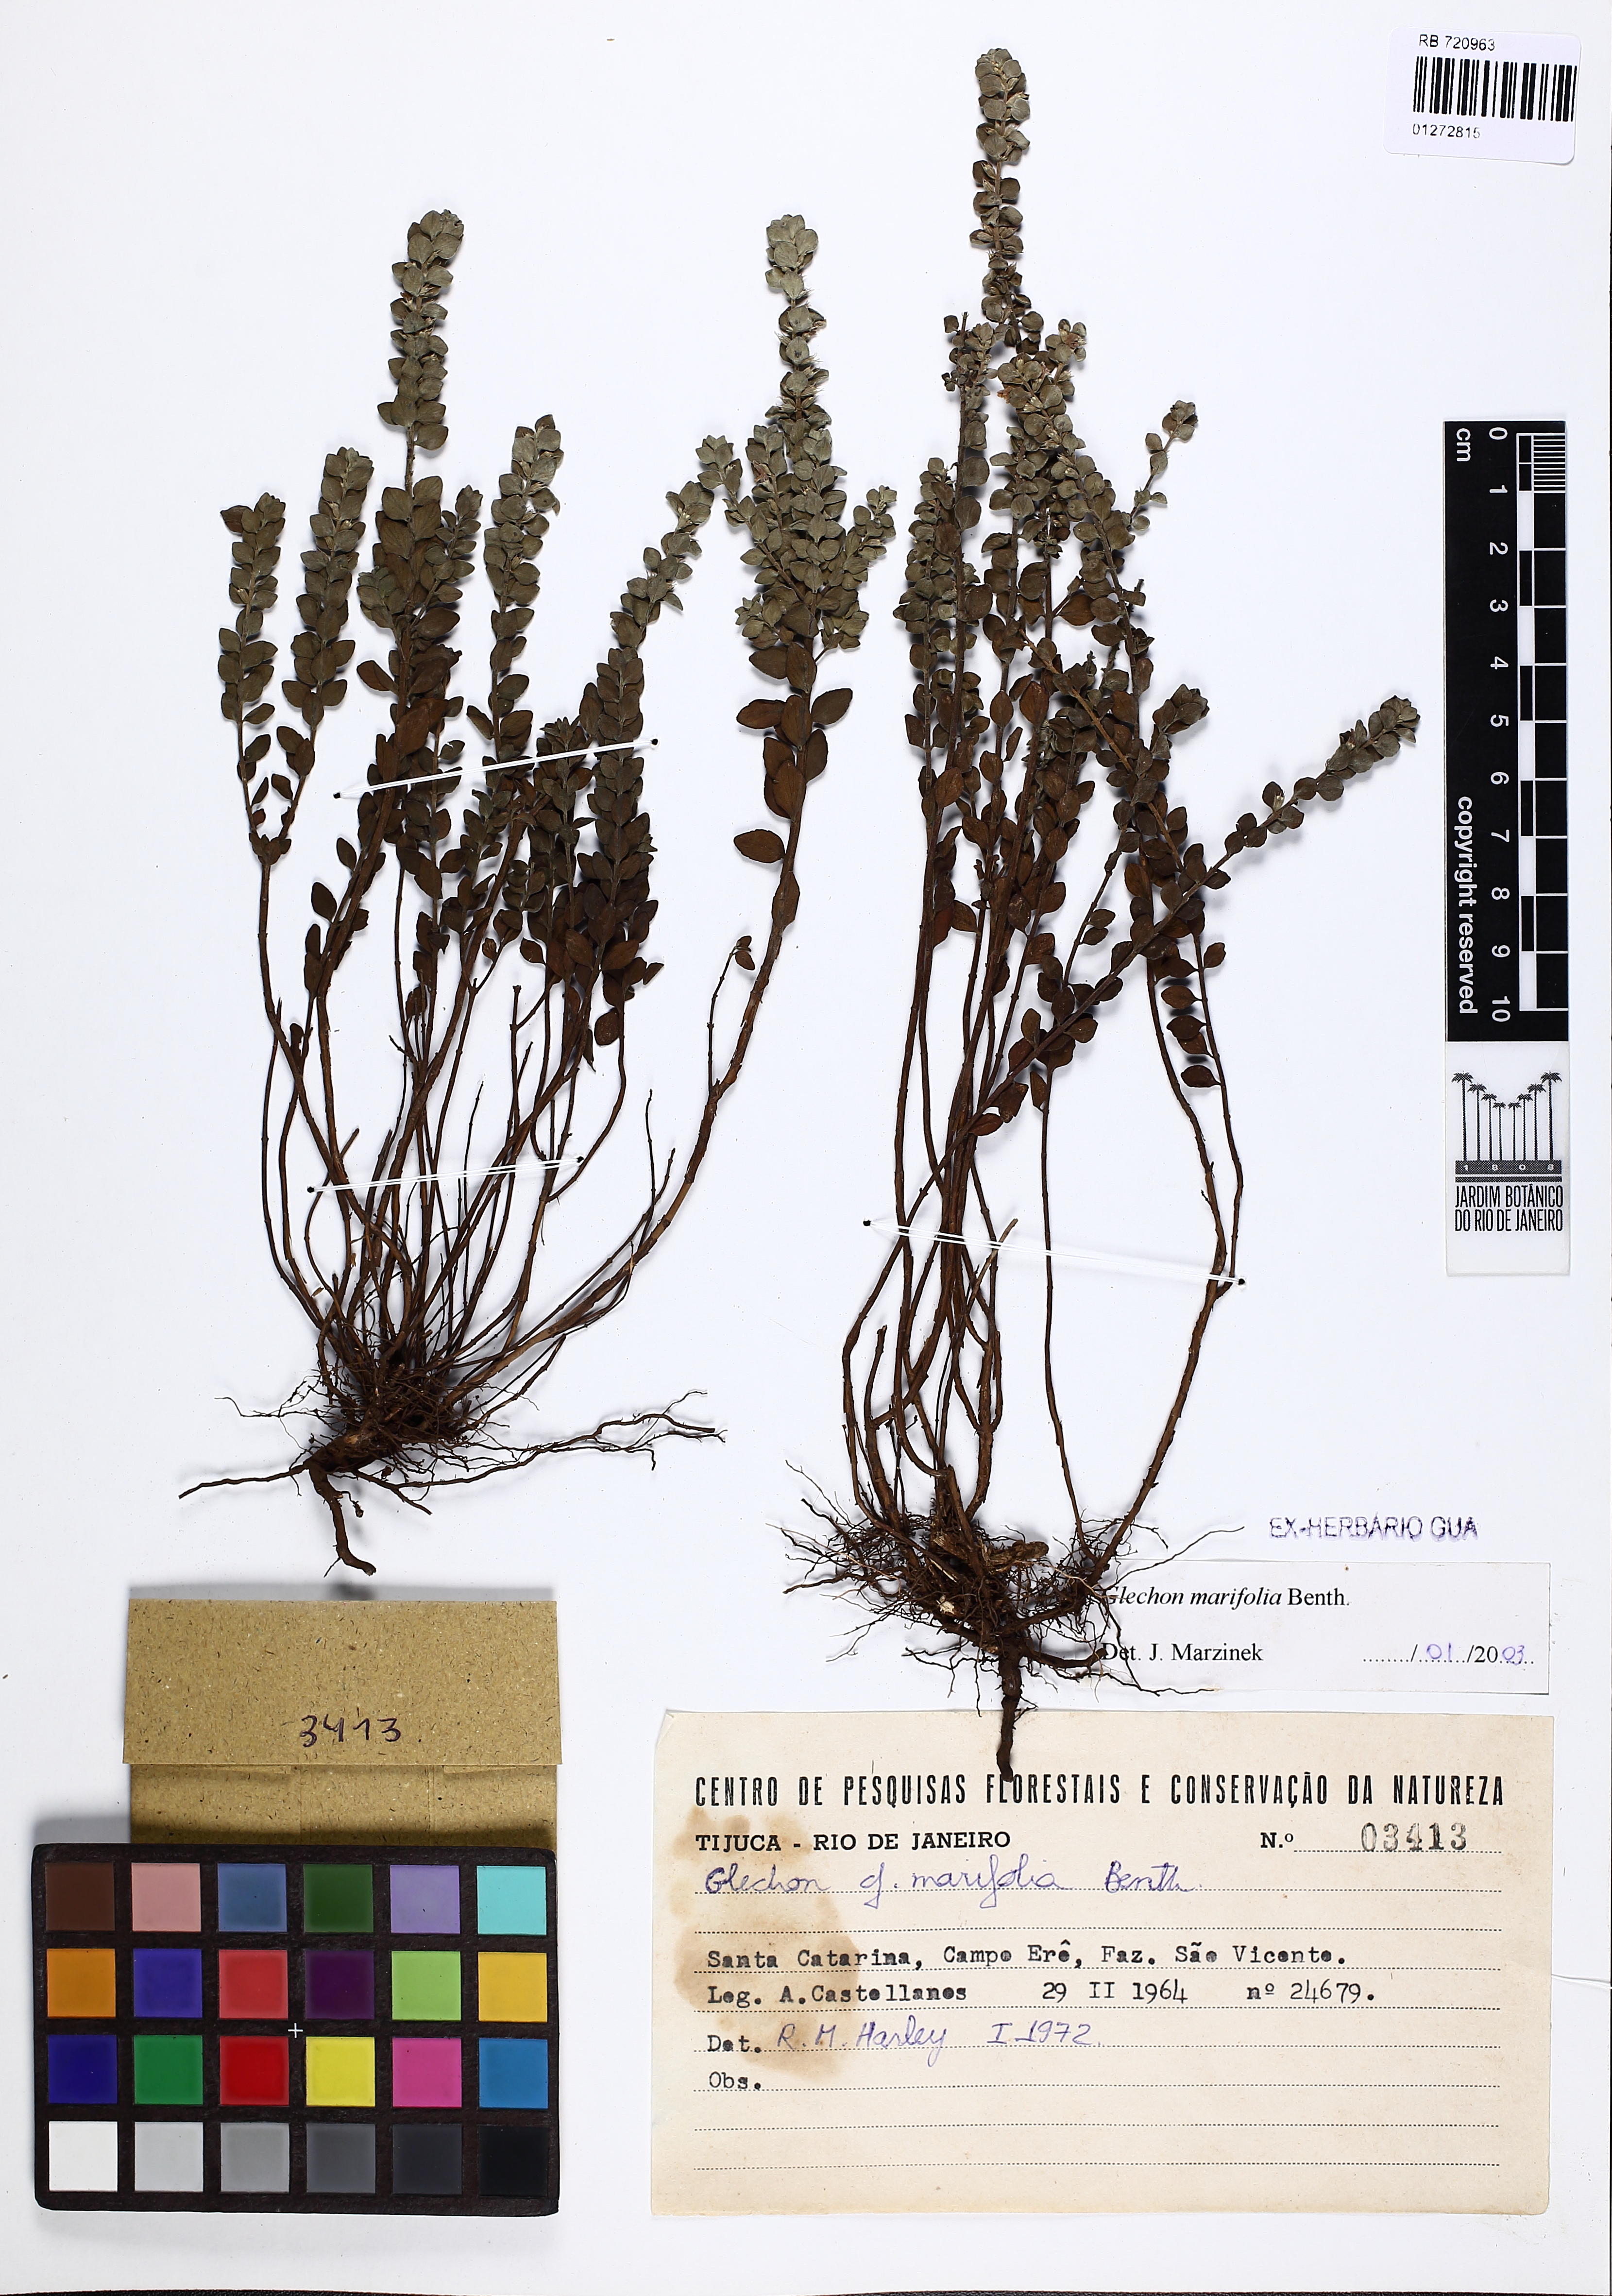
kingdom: Plantae
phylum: Tracheophyta
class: Magnoliopsida
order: Lamiales
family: Lamiaceae
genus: Glechon
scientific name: Glechon marifolia
